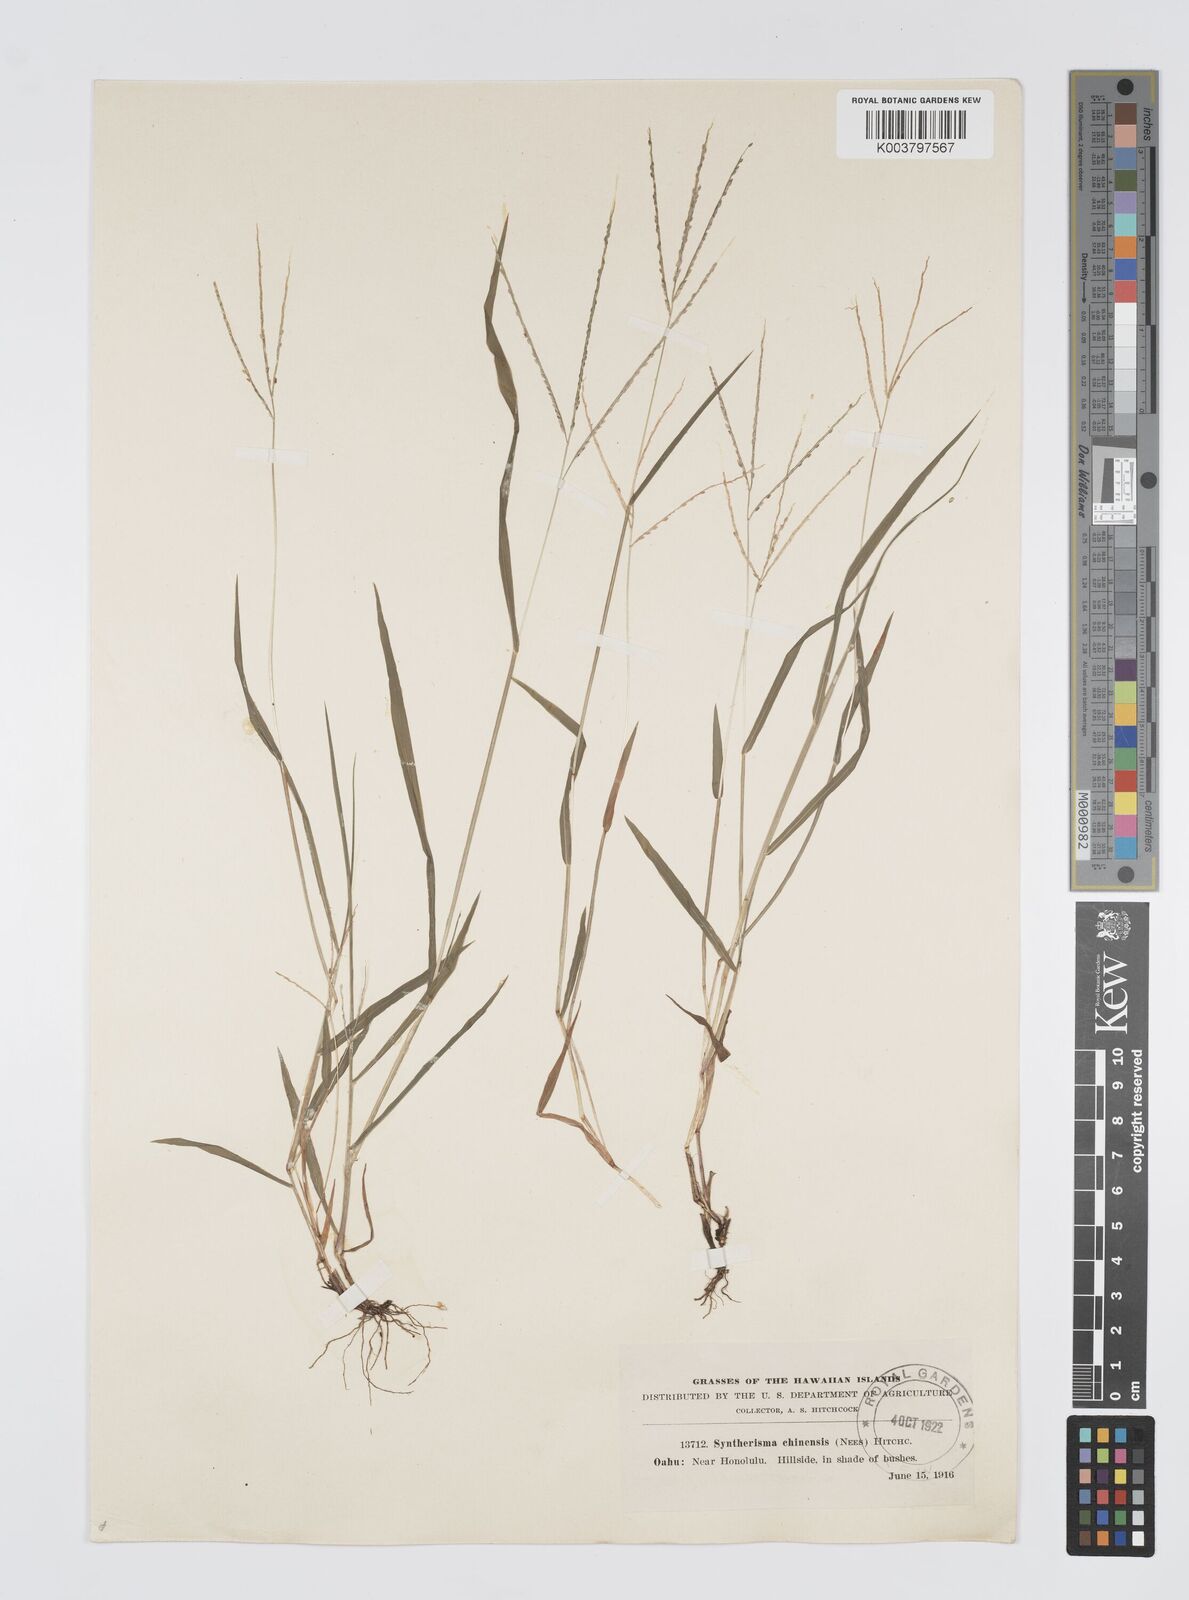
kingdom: Plantae
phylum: Tracheophyta
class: Liliopsida
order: Poales
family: Poaceae
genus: Digitaria
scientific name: Digitaria violascens
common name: Violet crabgrass
